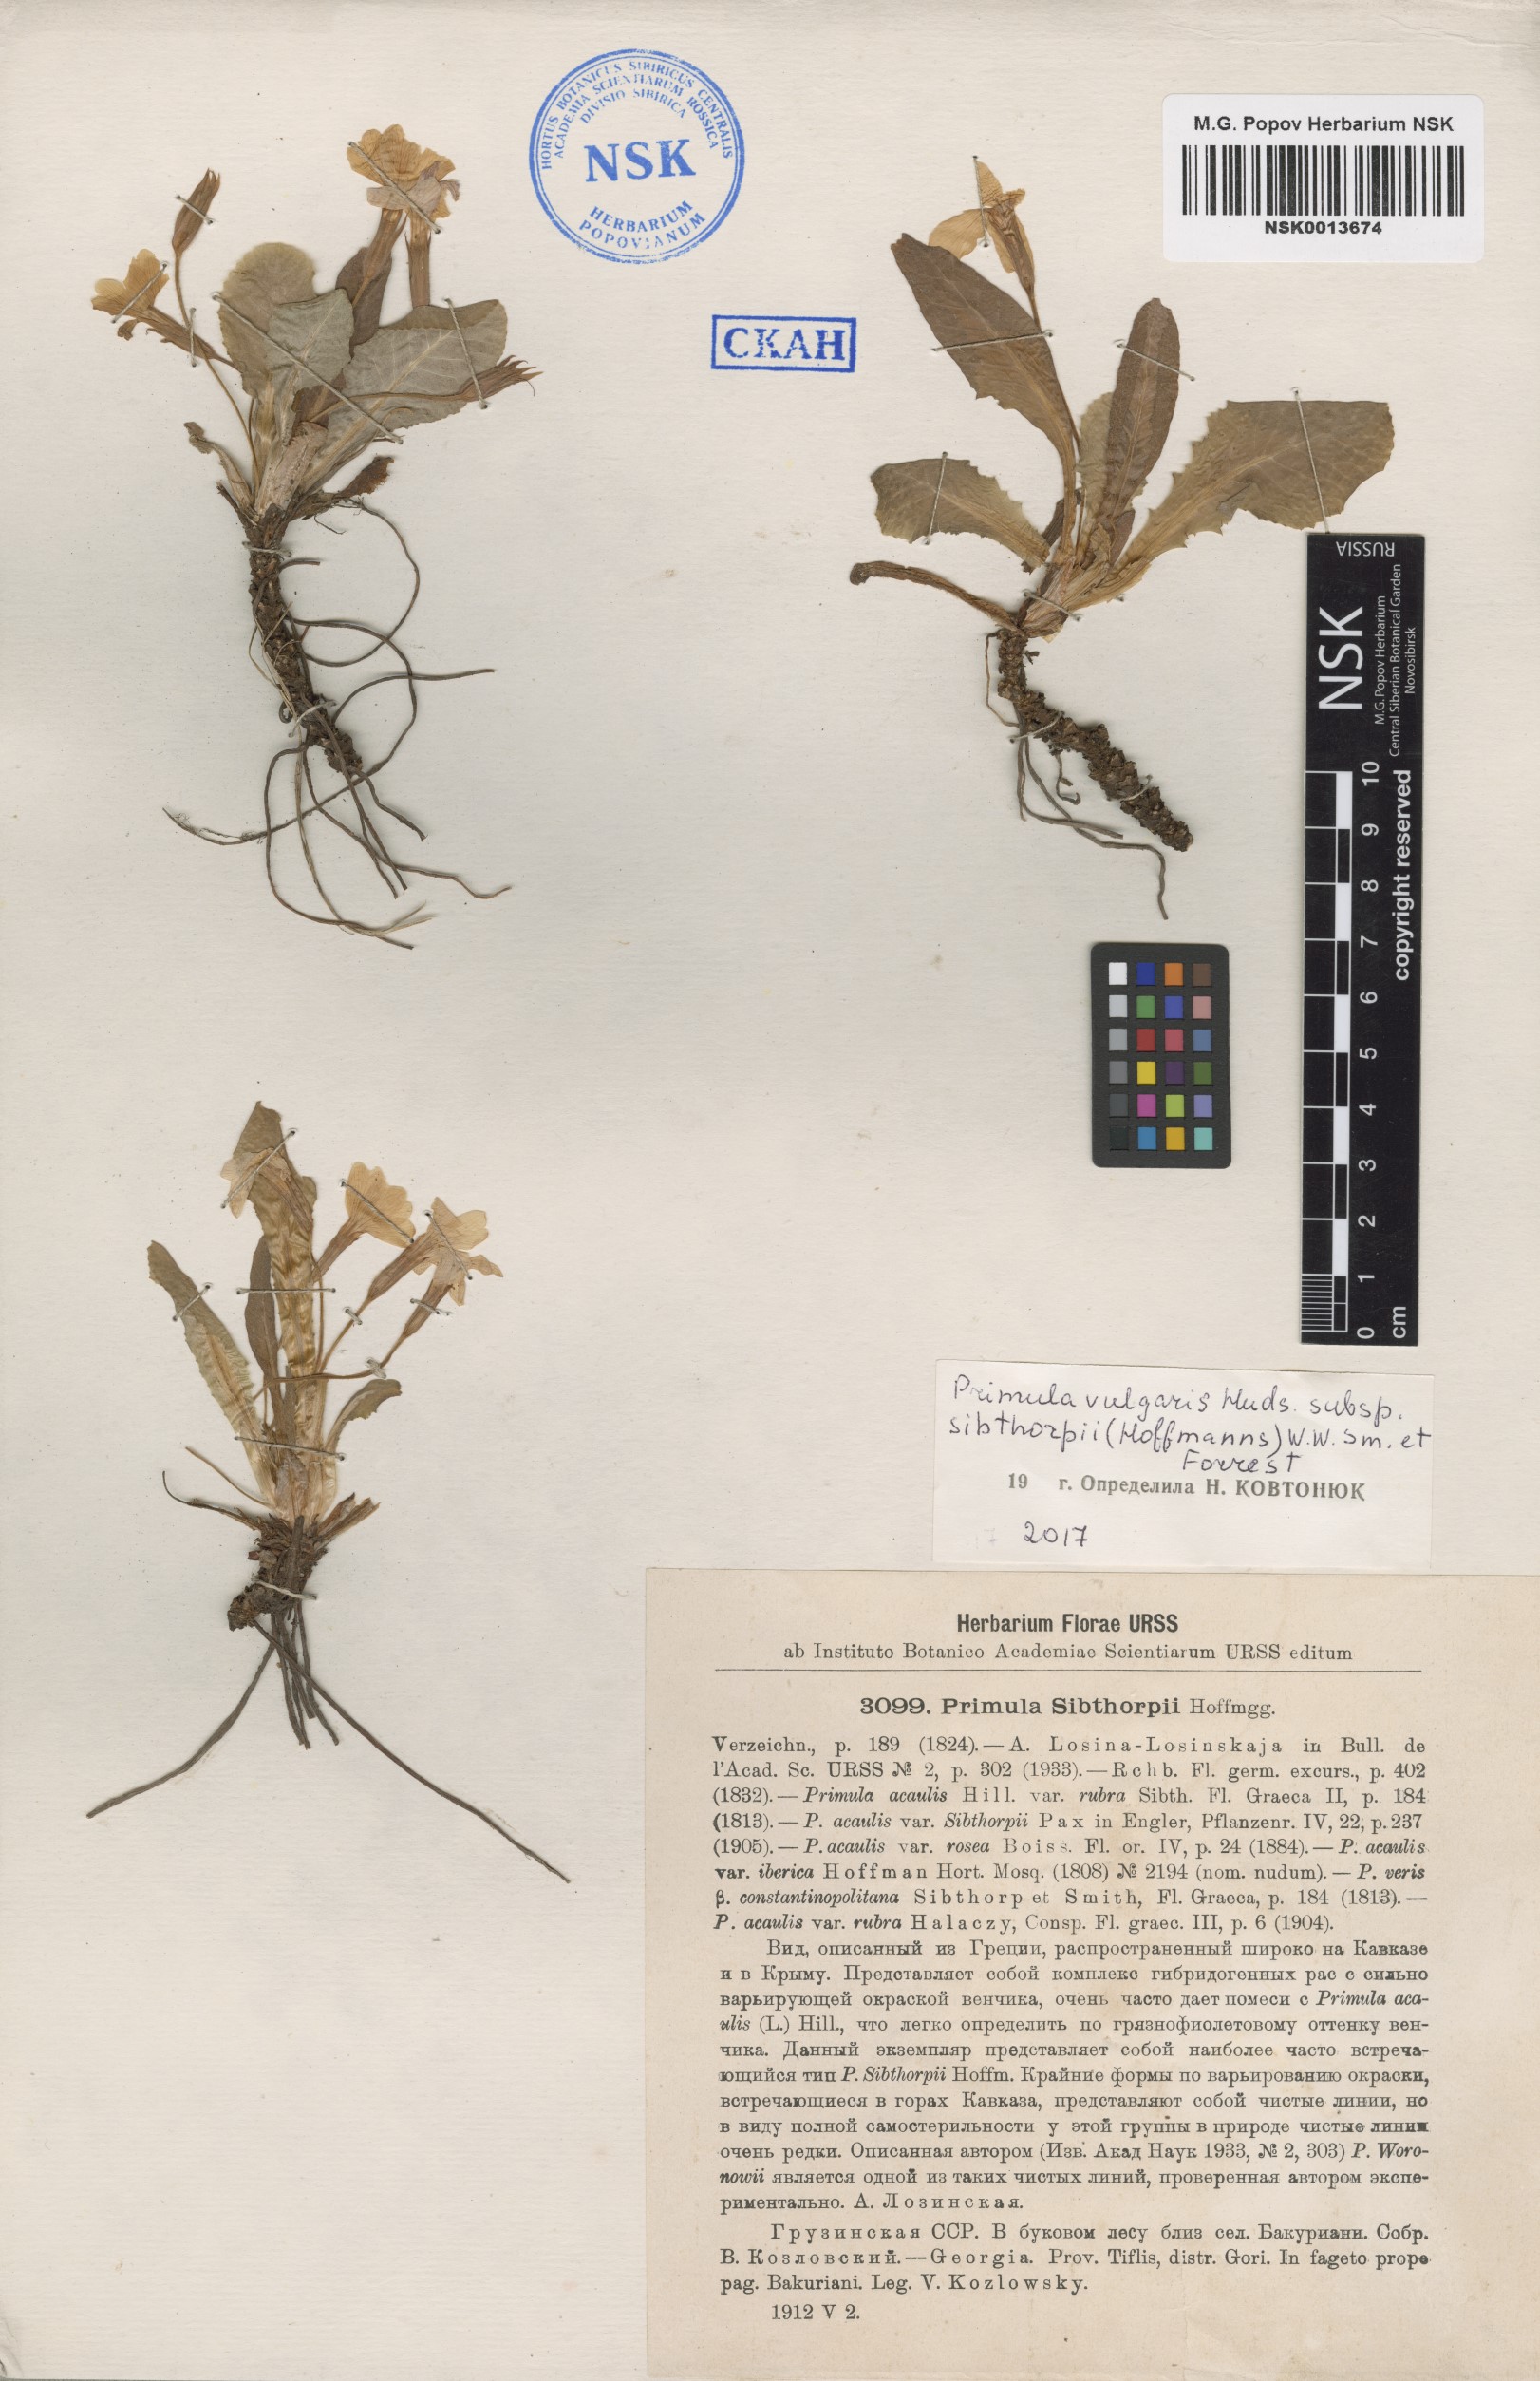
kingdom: Plantae
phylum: Tracheophyta
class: Magnoliopsida
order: Ericales
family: Primulaceae
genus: Primula
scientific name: Primula vulgaris
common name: Primrose
